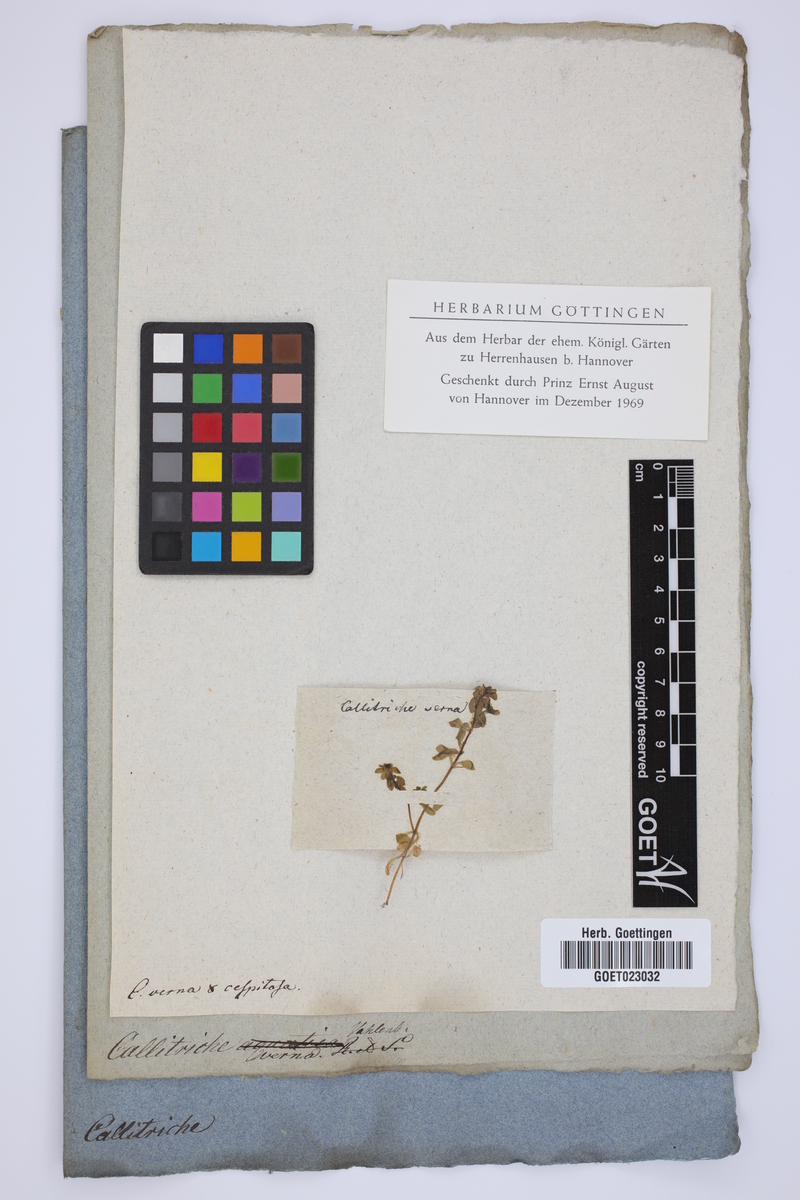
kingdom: Plantae
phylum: Tracheophyta
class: Magnoliopsida
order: Lamiales
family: Plantaginaceae
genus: Callitriche
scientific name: Callitriche palustris
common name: Spring water-starwort
